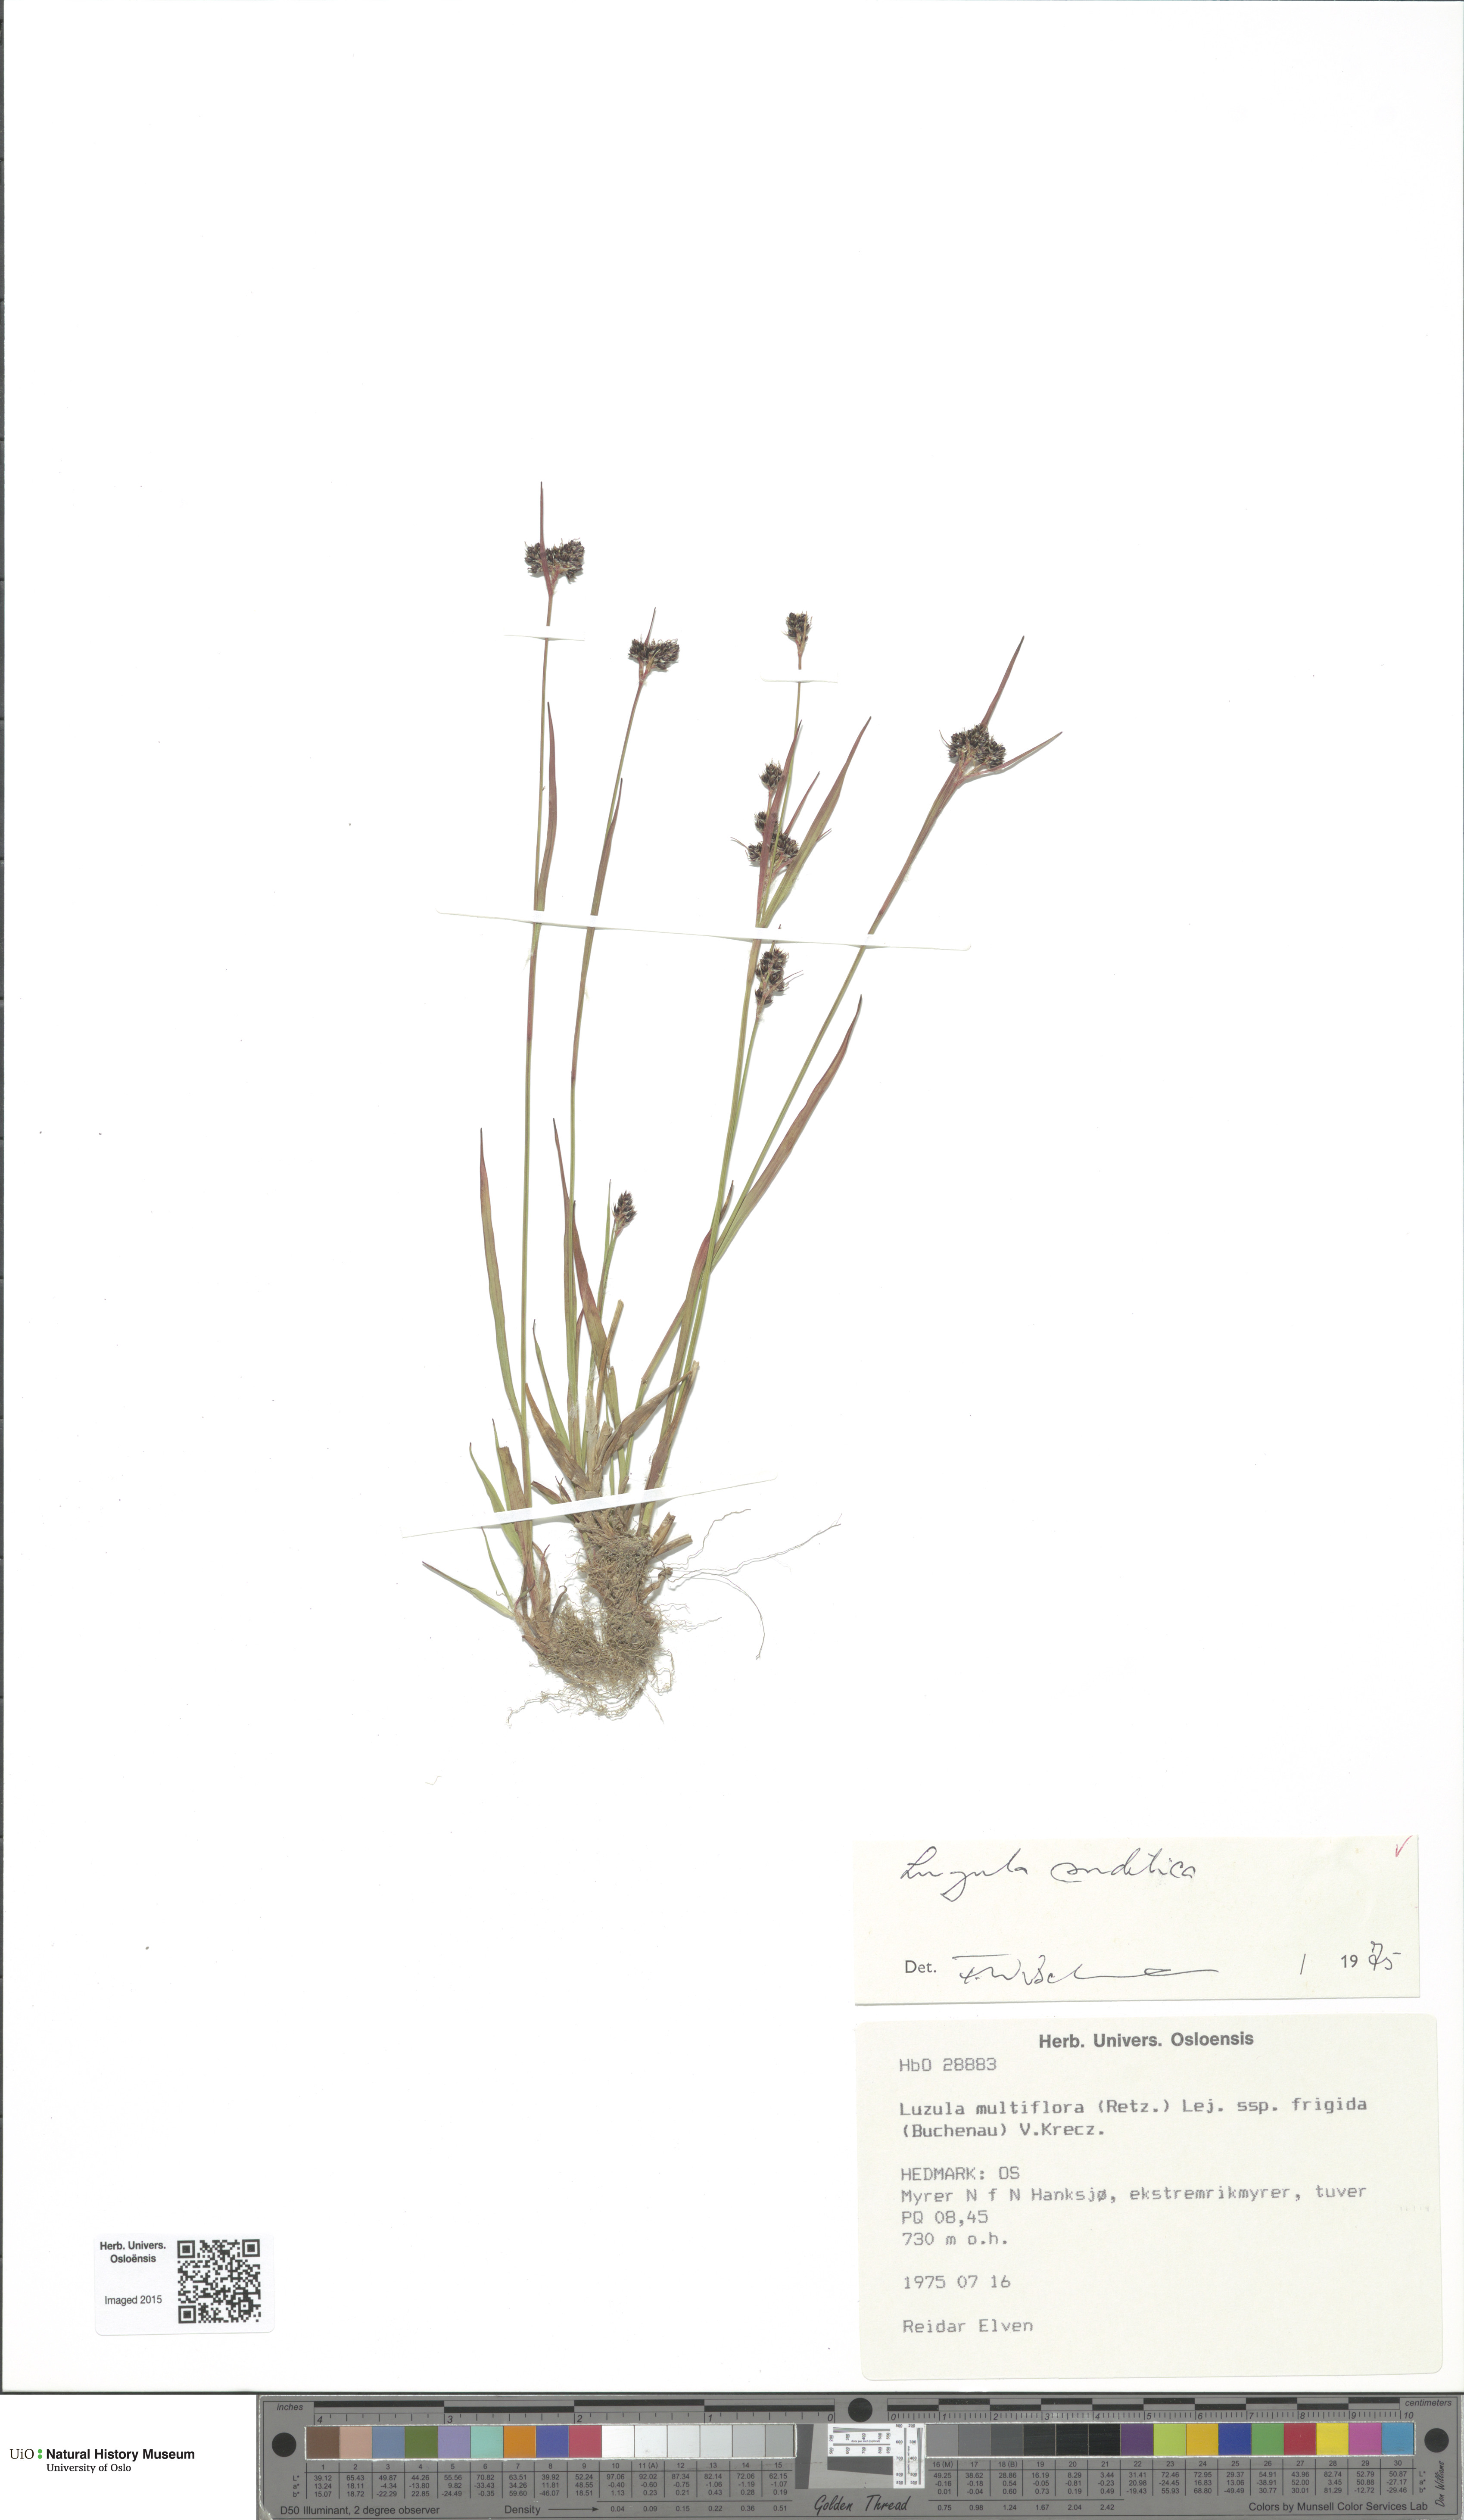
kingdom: Plantae
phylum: Tracheophyta
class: Liliopsida
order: Poales
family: Juncaceae
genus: Luzula
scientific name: Luzula sudetica
